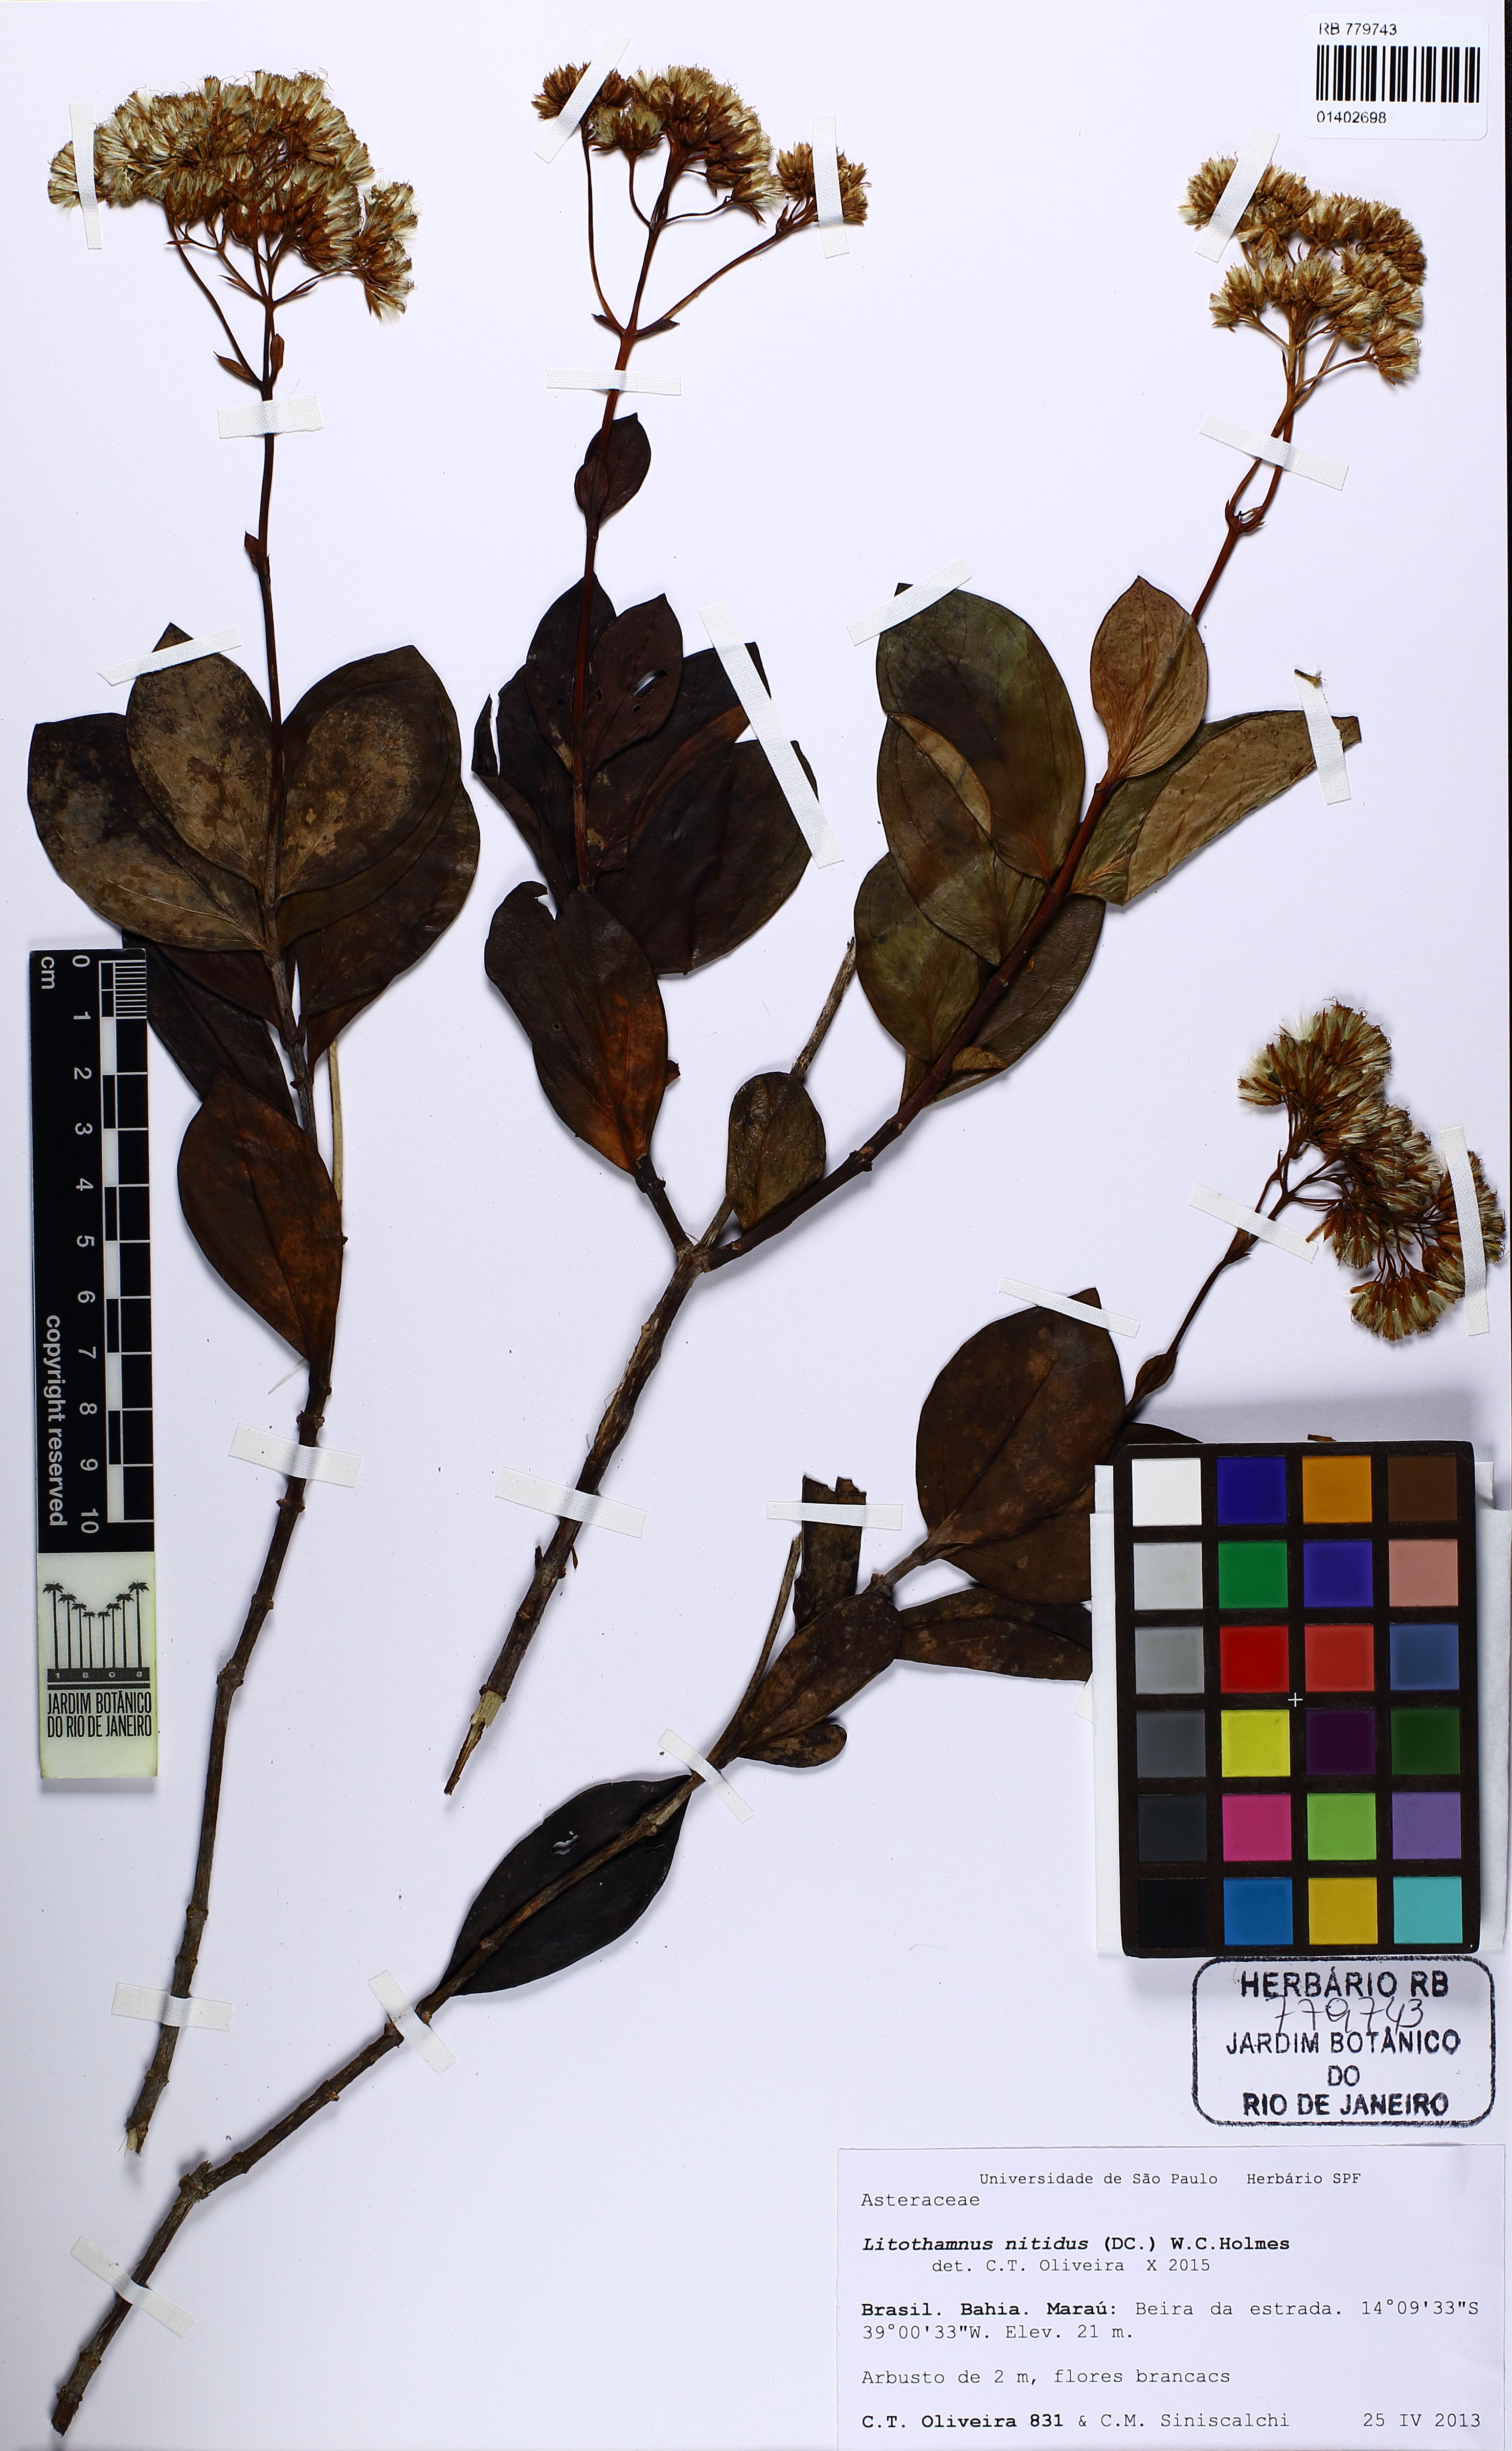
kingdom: Plantae
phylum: Tracheophyta
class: Magnoliopsida
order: Asterales
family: Asteraceae
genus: Litothamnus
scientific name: Litothamnus nitidus
